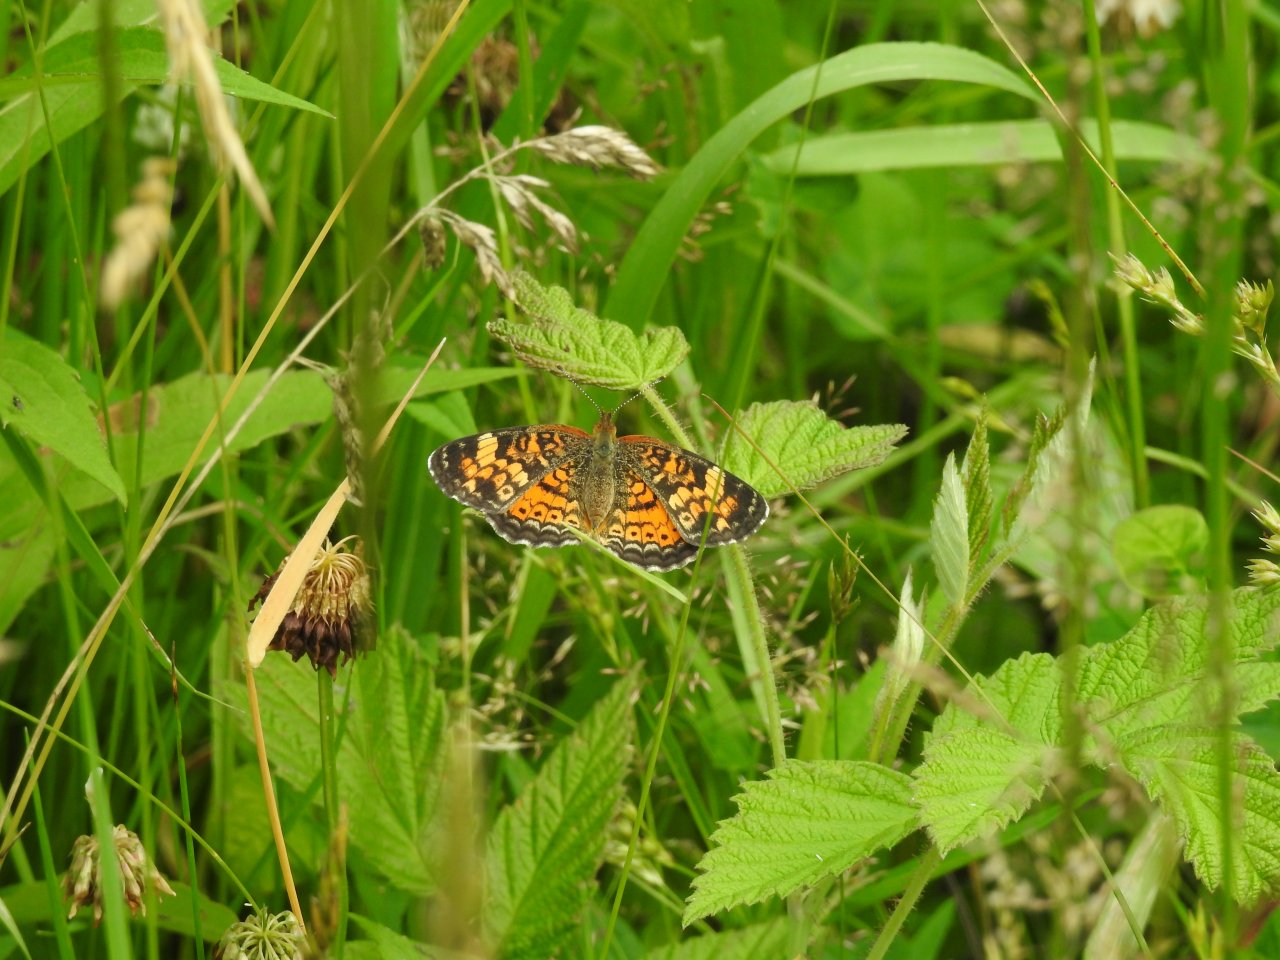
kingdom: Animalia
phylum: Arthropoda
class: Insecta
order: Lepidoptera
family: Nymphalidae
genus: Phyciodes
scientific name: Phyciodes tharos
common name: Pearl Crescent
